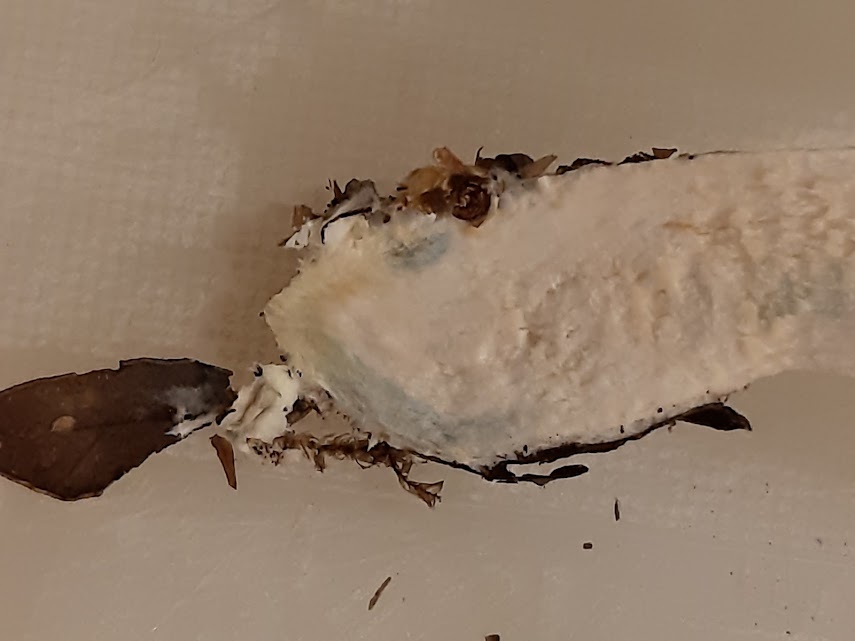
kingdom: Fungi
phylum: Basidiomycota
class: Agaricomycetes
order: Boletales
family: Boletaceae
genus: Leccinum
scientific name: Leccinum
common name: skælrørhat
